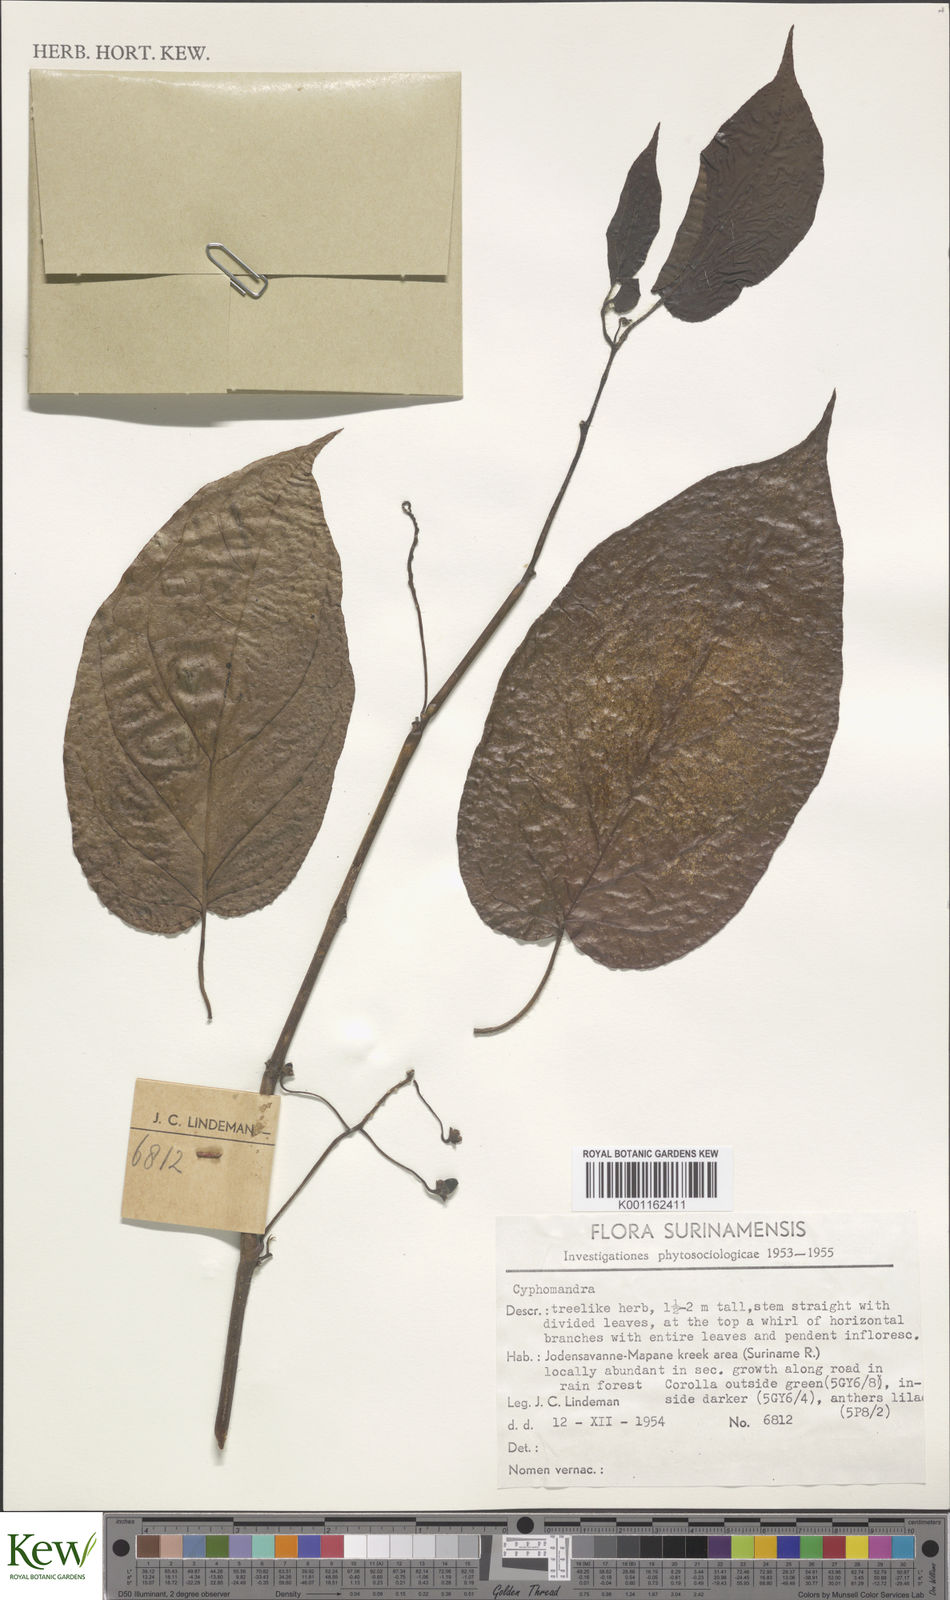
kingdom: Plantae
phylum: Tracheophyta
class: Magnoliopsida
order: Solanales
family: Solanaceae
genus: Solanum
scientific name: Solanum
